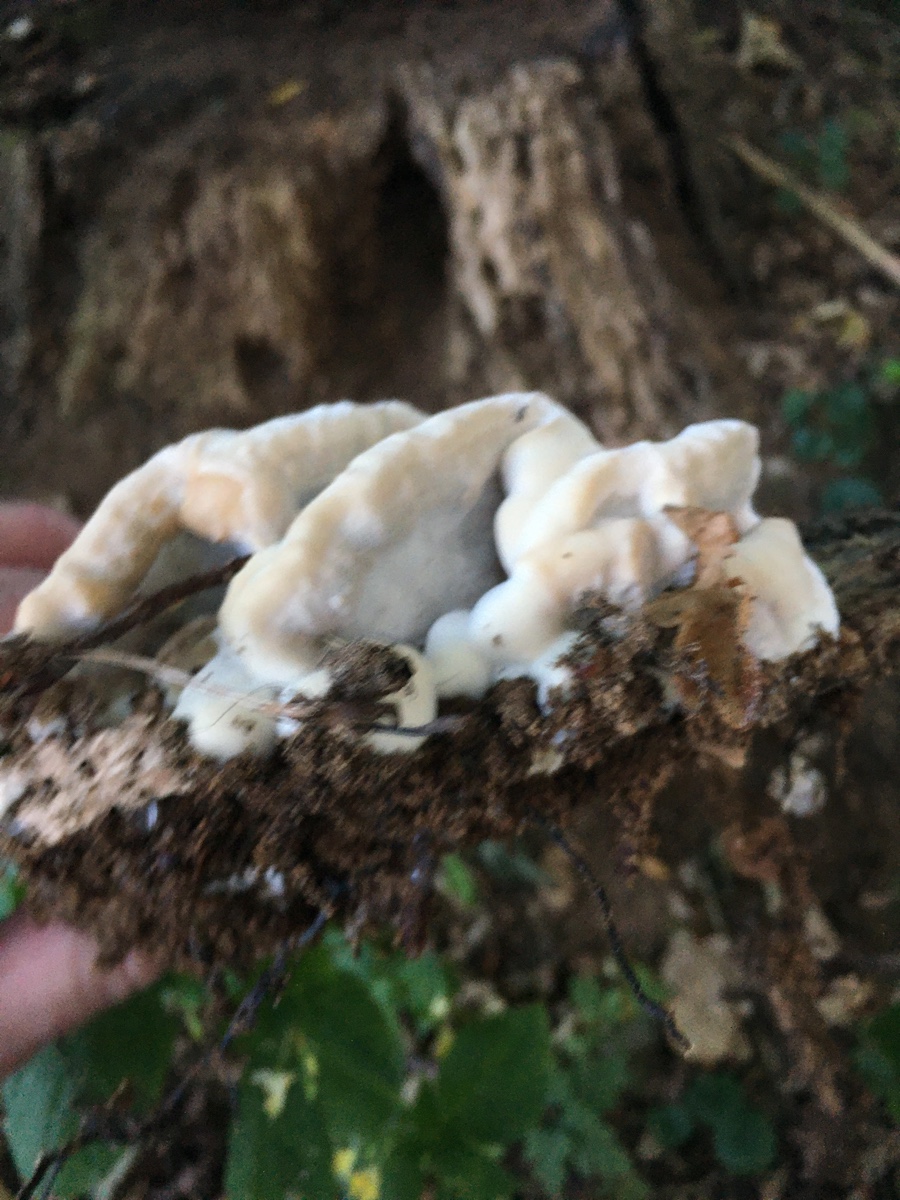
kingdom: Fungi
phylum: Basidiomycota
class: Agaricomycetes
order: Polyporales
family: Phanerochaetaceae
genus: Bjerkandera
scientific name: Bjerkandera fumosa
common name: grågul sodporesvamp
